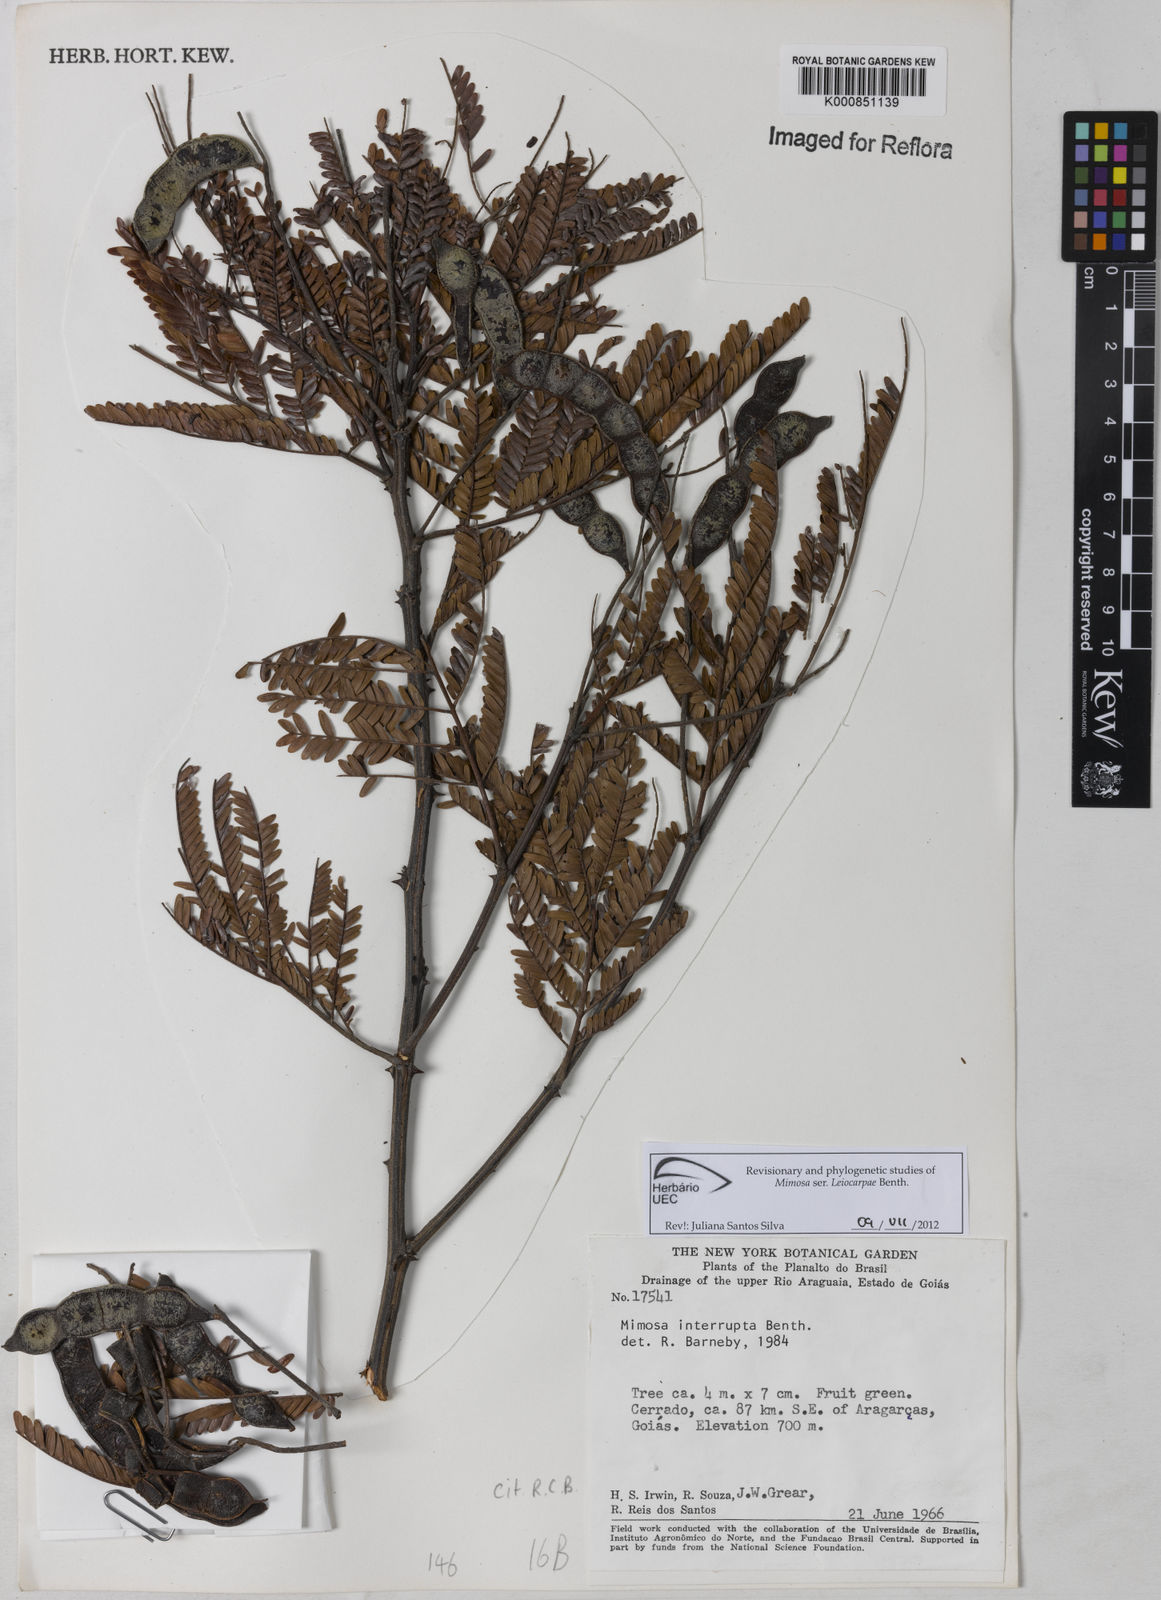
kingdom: Plantae
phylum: Tracheophyta
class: Magnoliopsida
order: Fabales
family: Fabaceae
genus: Mimosa
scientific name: Mimosa interrupta
